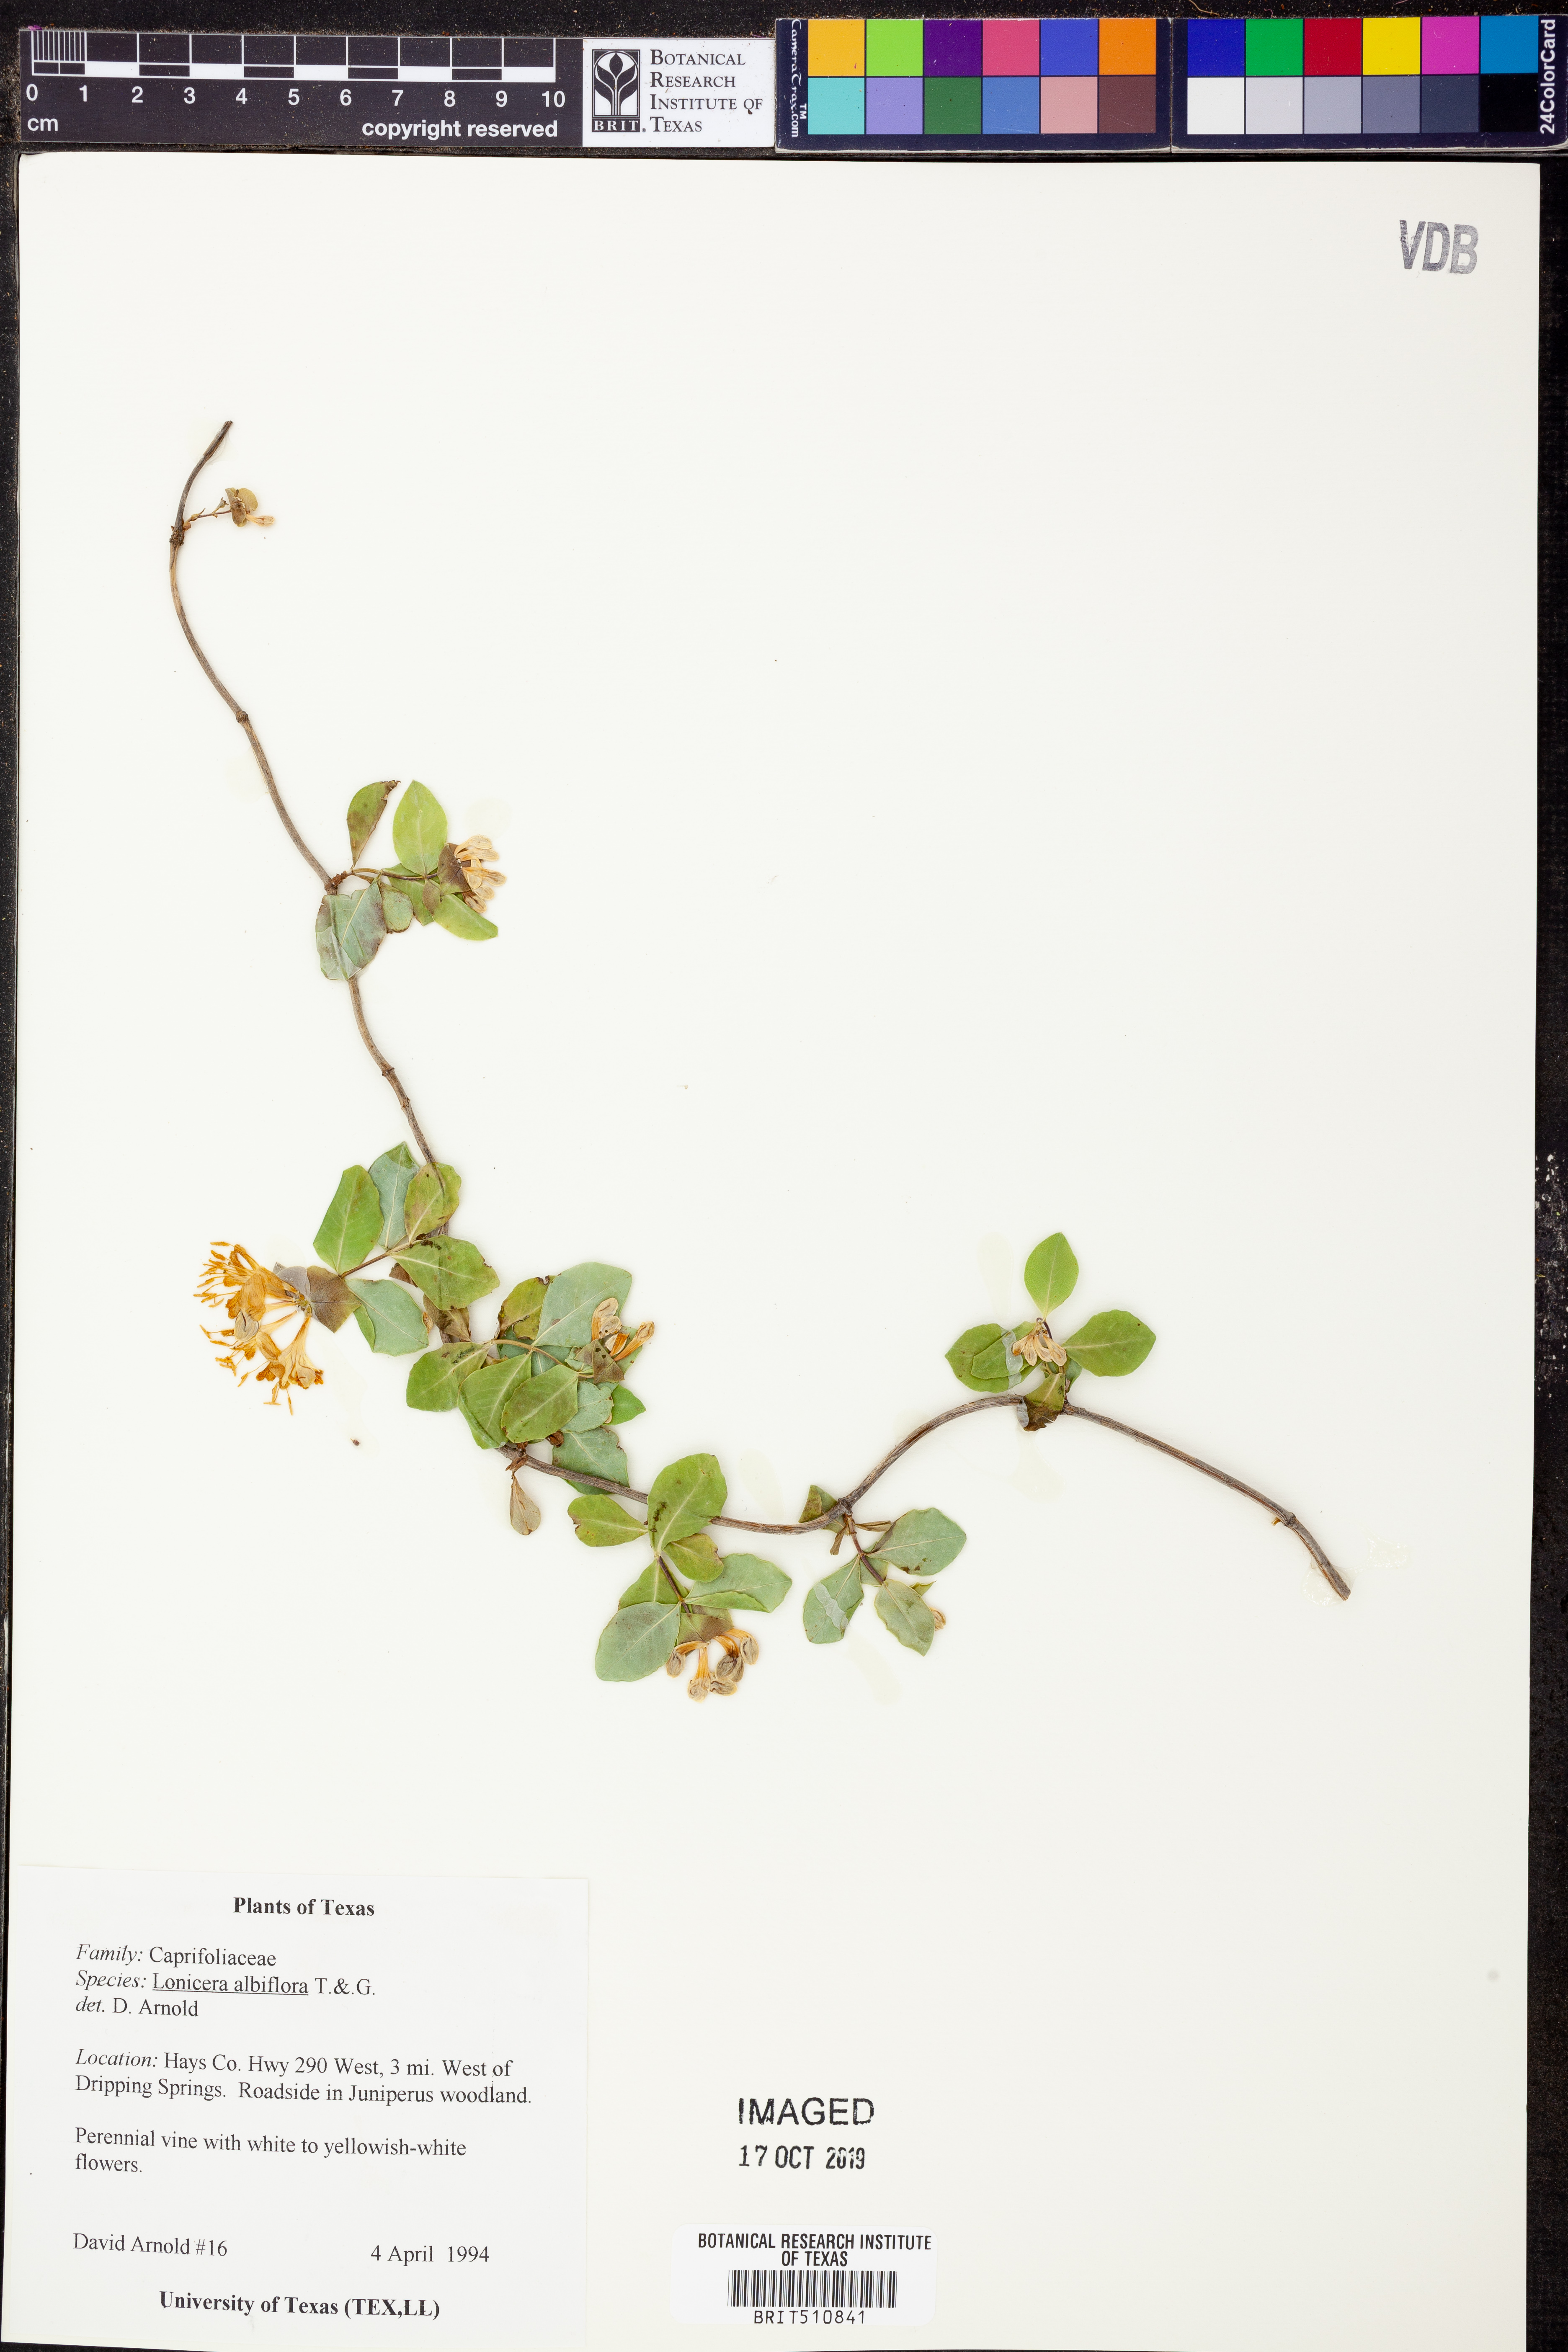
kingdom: Plantae
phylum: Tracheophyta
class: Magnoliopsida
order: Dipsacales
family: Caprifoliaceae
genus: Lonicera
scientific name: Lonicera albiflora
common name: White honeysuckle
